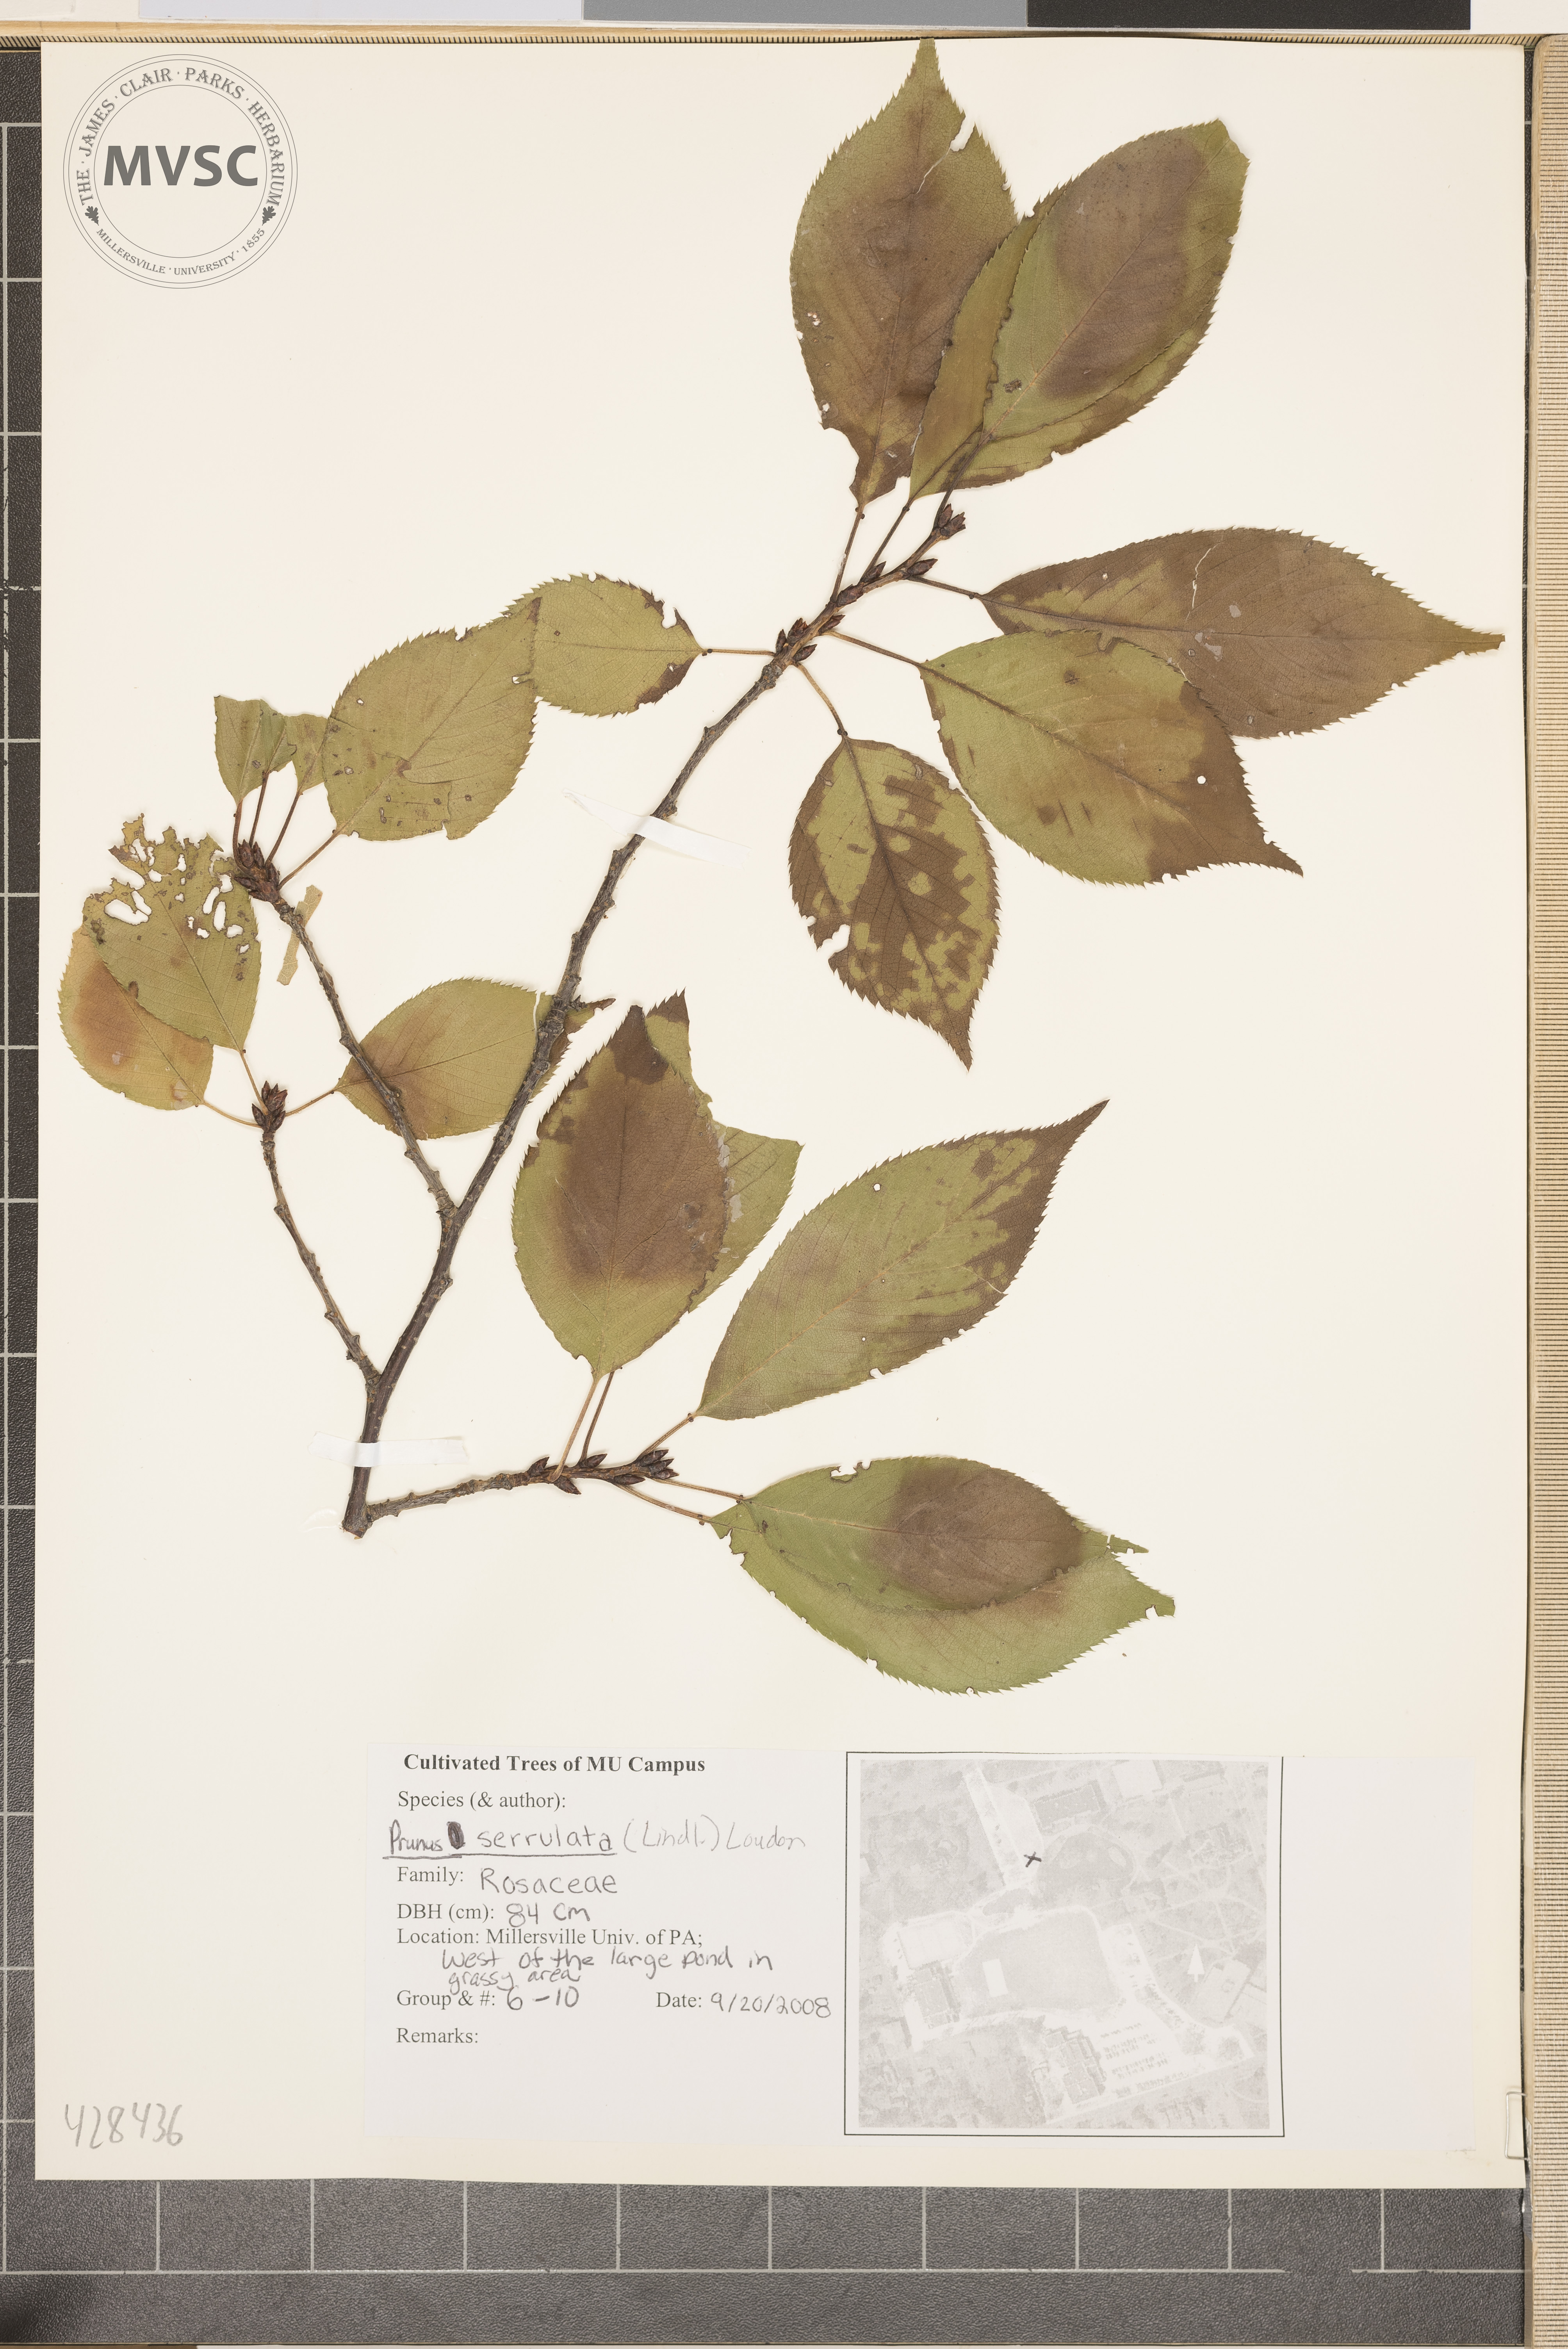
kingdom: Plantae
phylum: Tracheophyta
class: Magnoliopsida
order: Rosales
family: Rosaceae
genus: Prunus
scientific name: Prunus serrulata
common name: Oriental cherry
